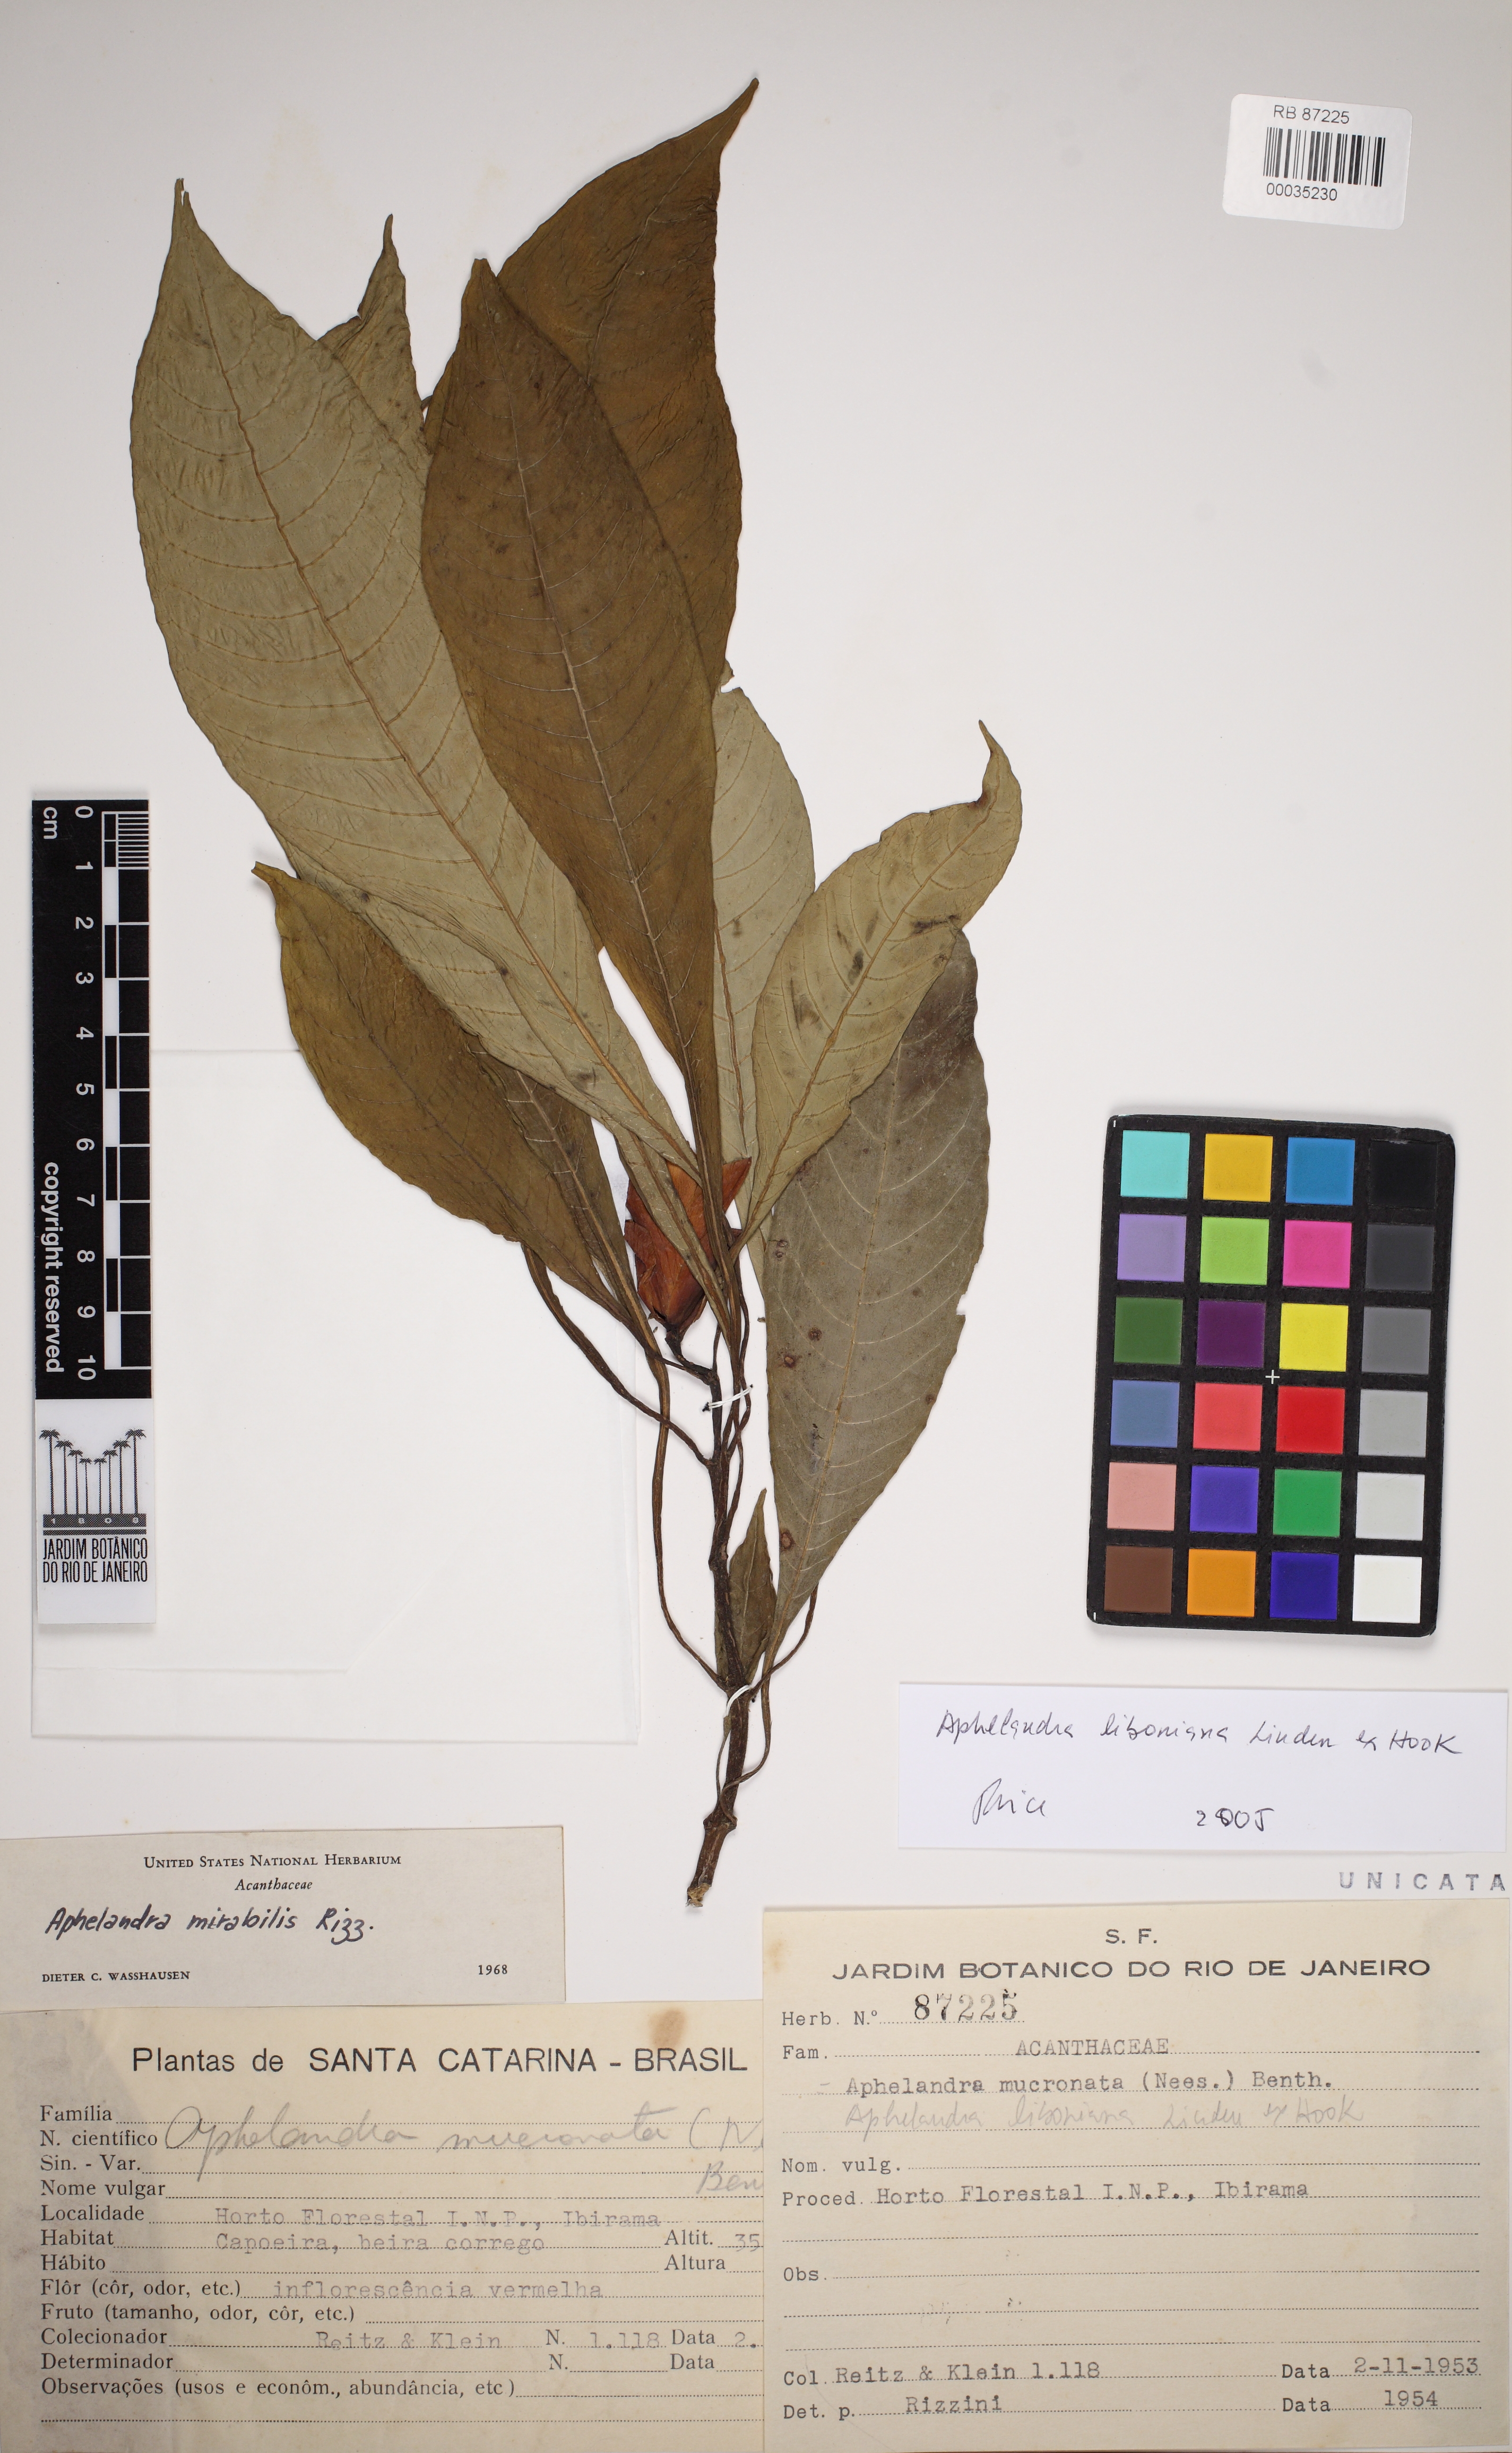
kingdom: Plantae
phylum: Tracheophyta
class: Magnoliopsida
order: Lamiales
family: Acanthaceae
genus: Aphelandra
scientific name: Aphelandra liboniana
